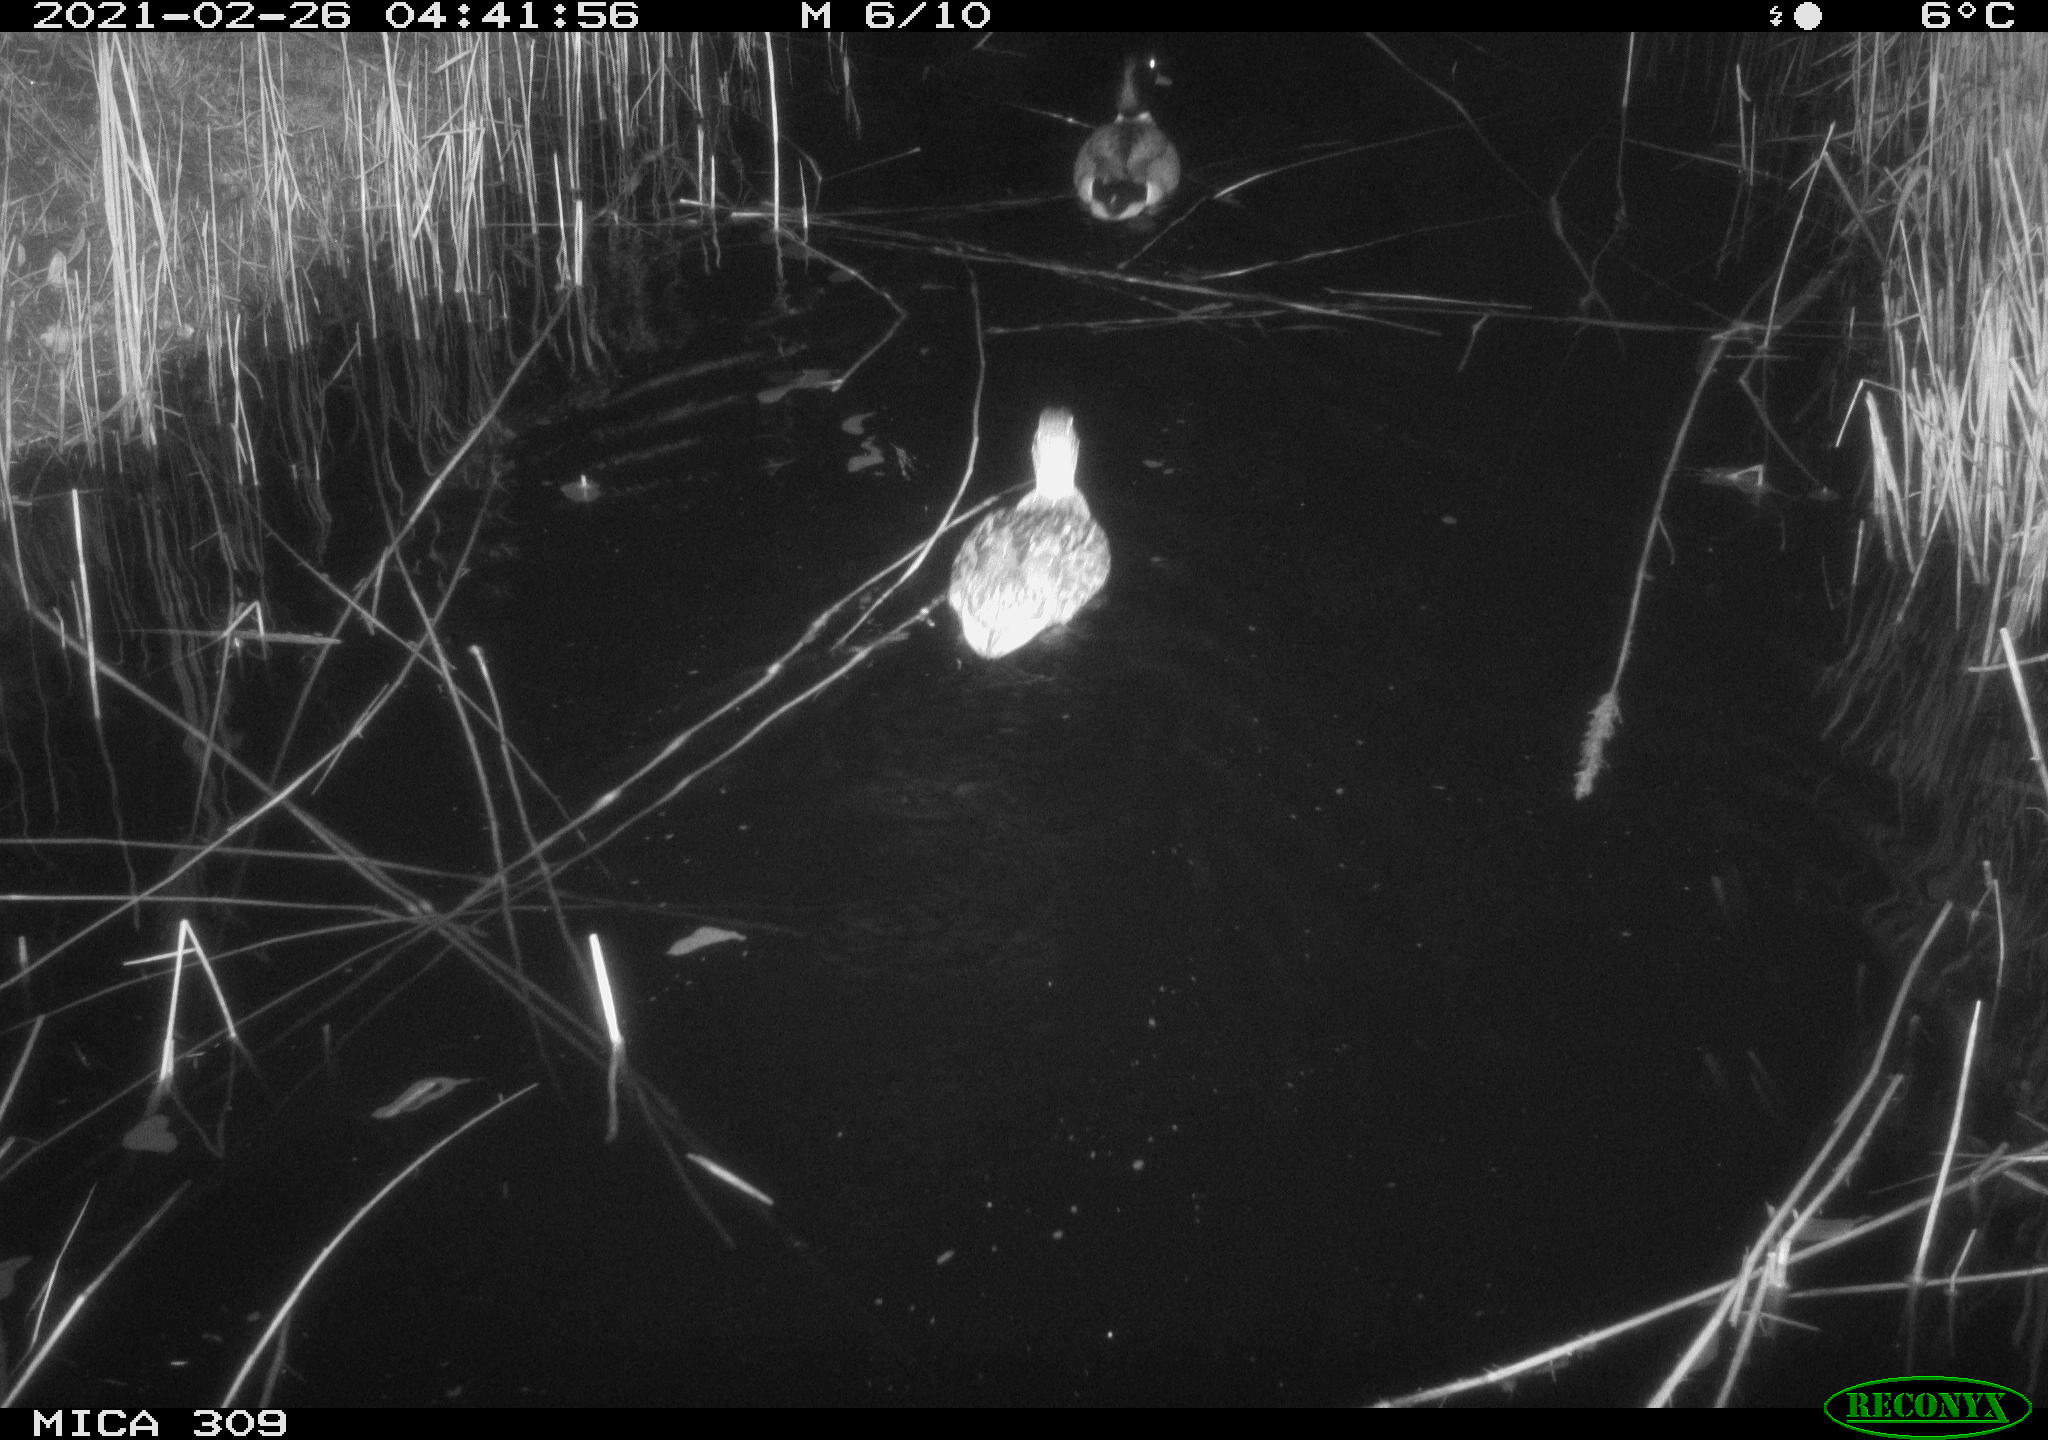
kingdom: Animalia
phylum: Chordata
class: Aves
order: Anseriformes
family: Anatidae
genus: Anas
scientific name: Anas platyrhynchos
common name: Mallard
